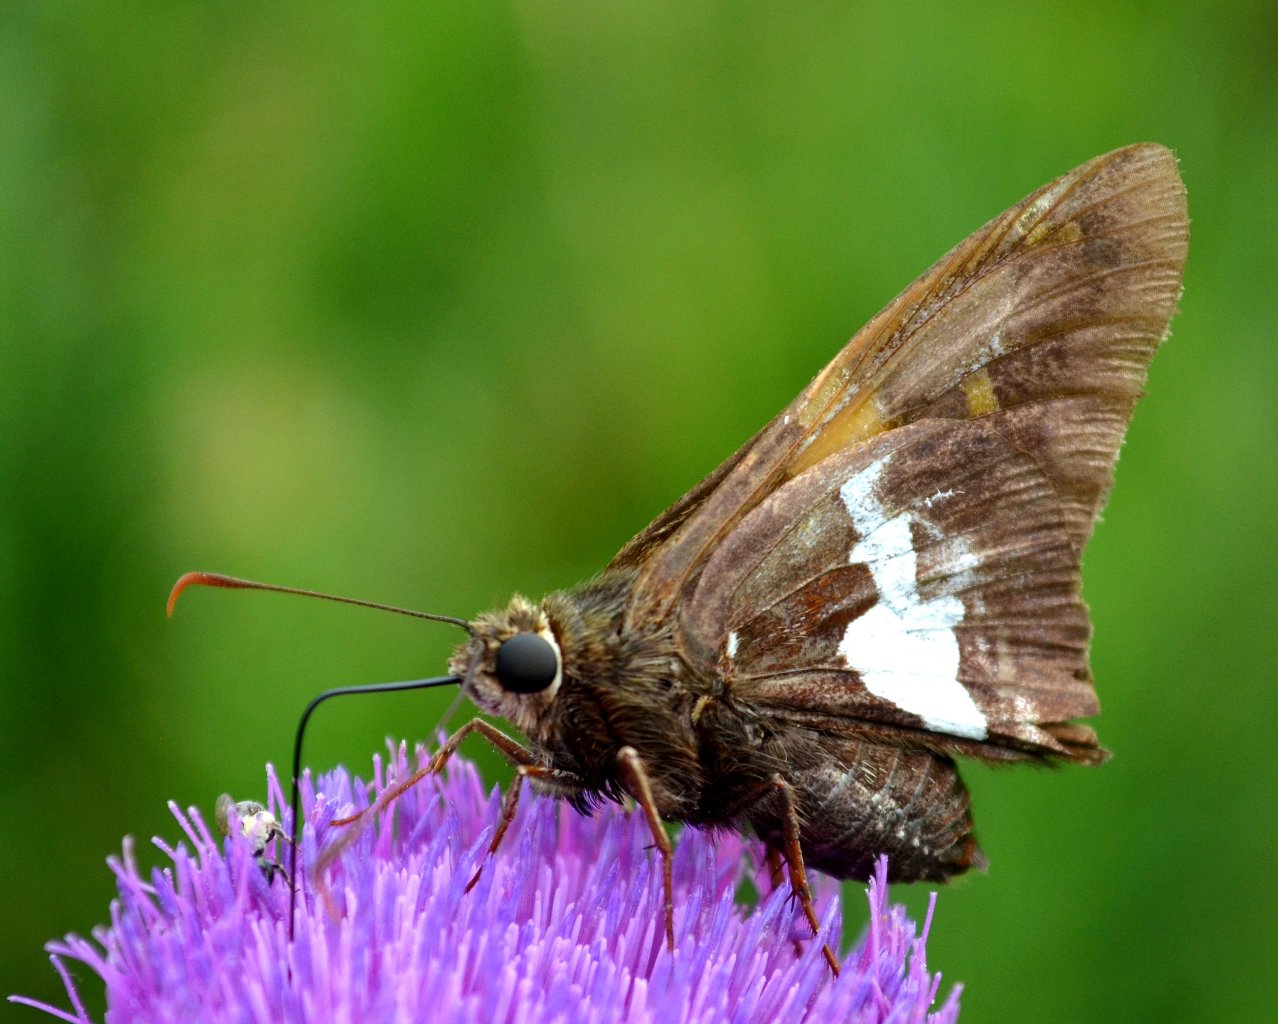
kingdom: Animalia
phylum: Arthropoda
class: Insecta
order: Lepidoptera
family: Hesperiidae
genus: Epargyreus
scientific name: Epargyreus clarus
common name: Silver-spotted Skipper
